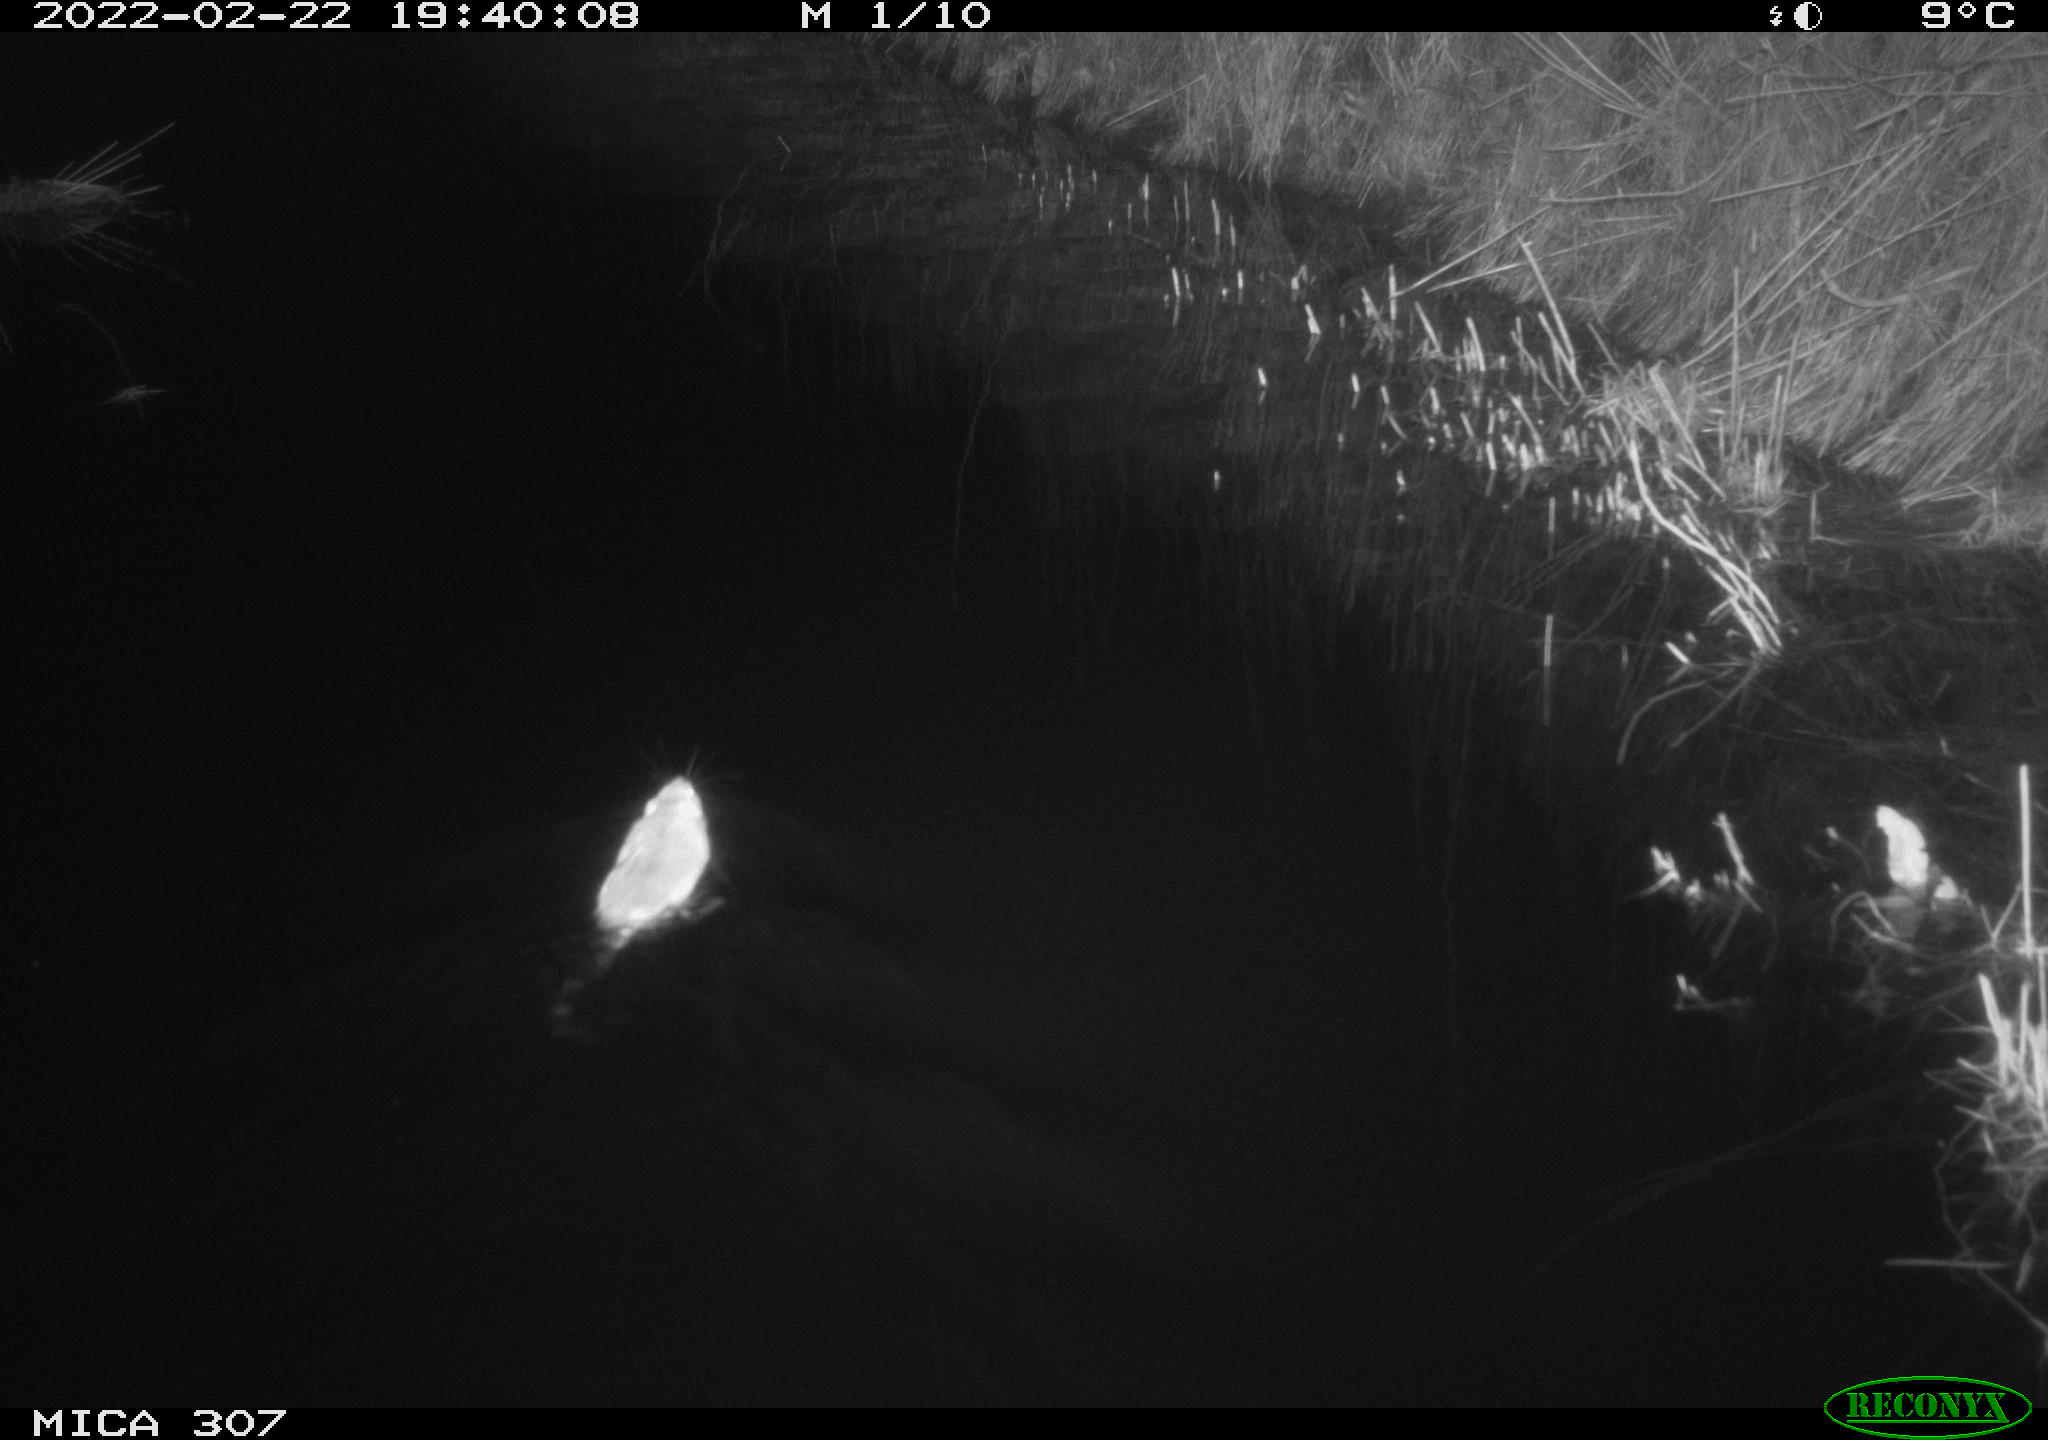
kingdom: Animalia
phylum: Chordata
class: Mammalia
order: Rodentia
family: Muridae
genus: Rattus
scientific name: Rattus norvegicus
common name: Brown rat
